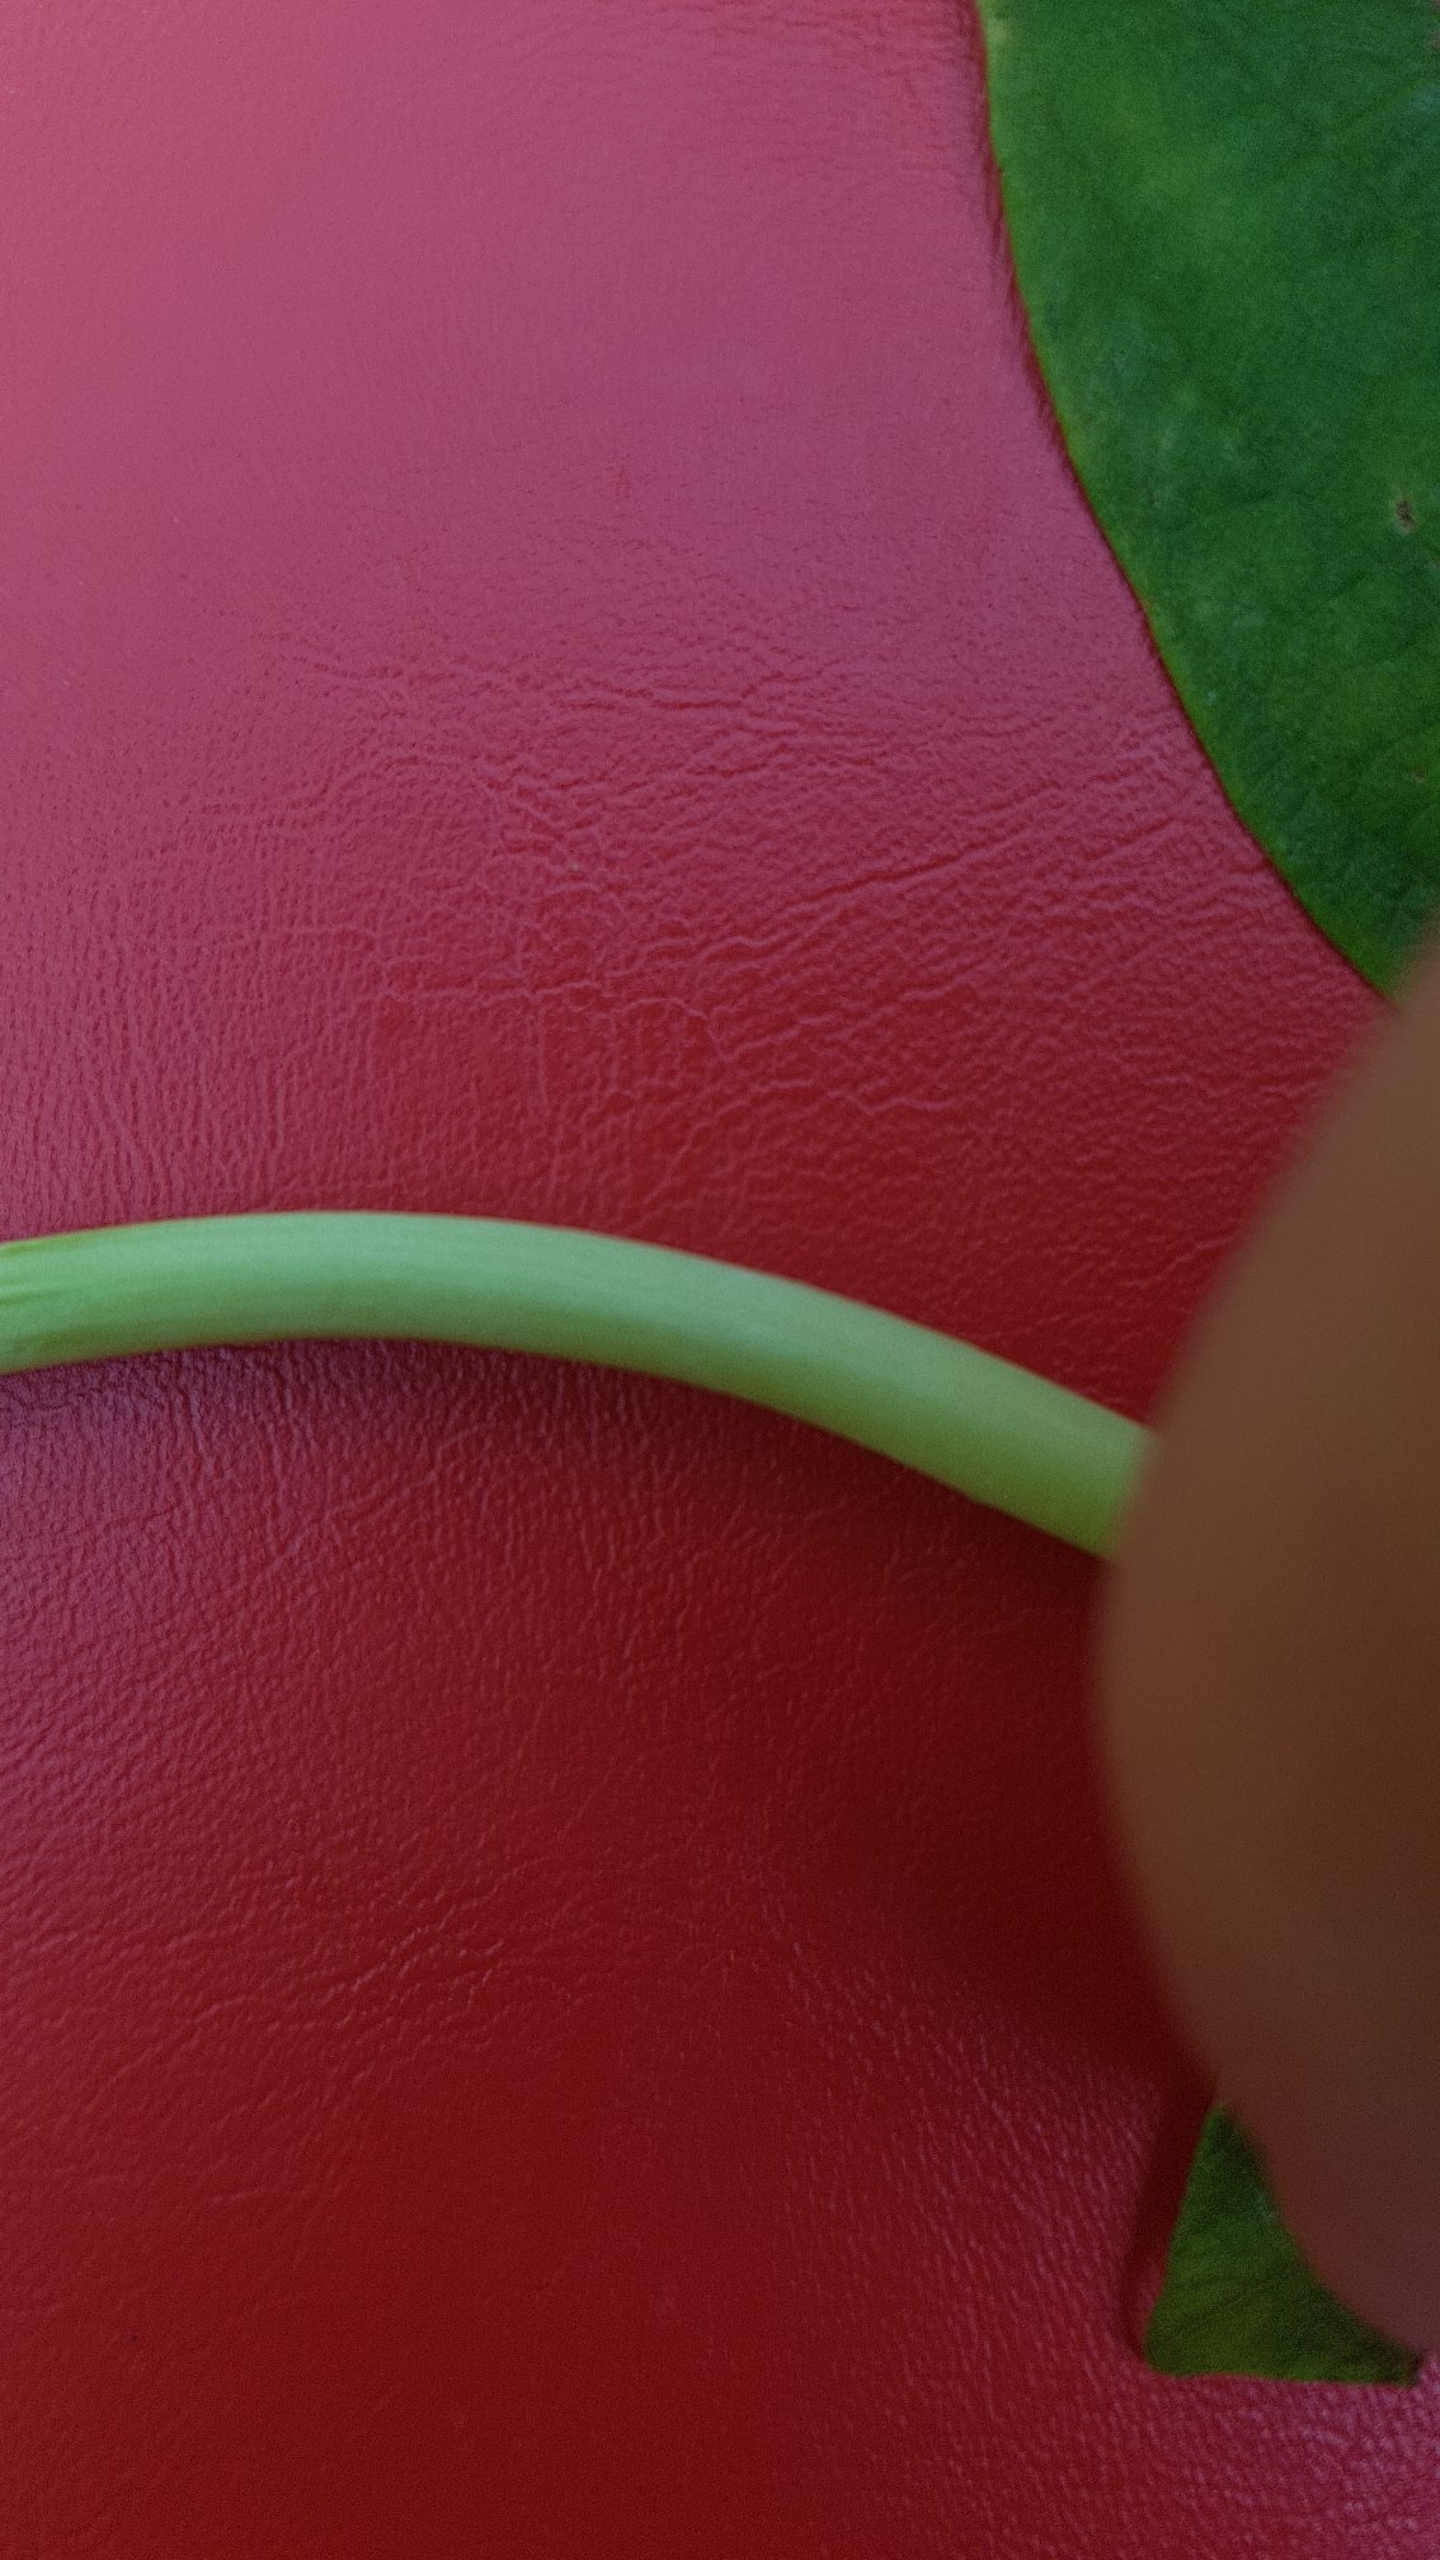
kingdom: Plantae
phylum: Tracheophyta
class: Magnoliopsida
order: Malpighiales
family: Salicaceae
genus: Salix
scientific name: Salix caprea
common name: Selje-pil
